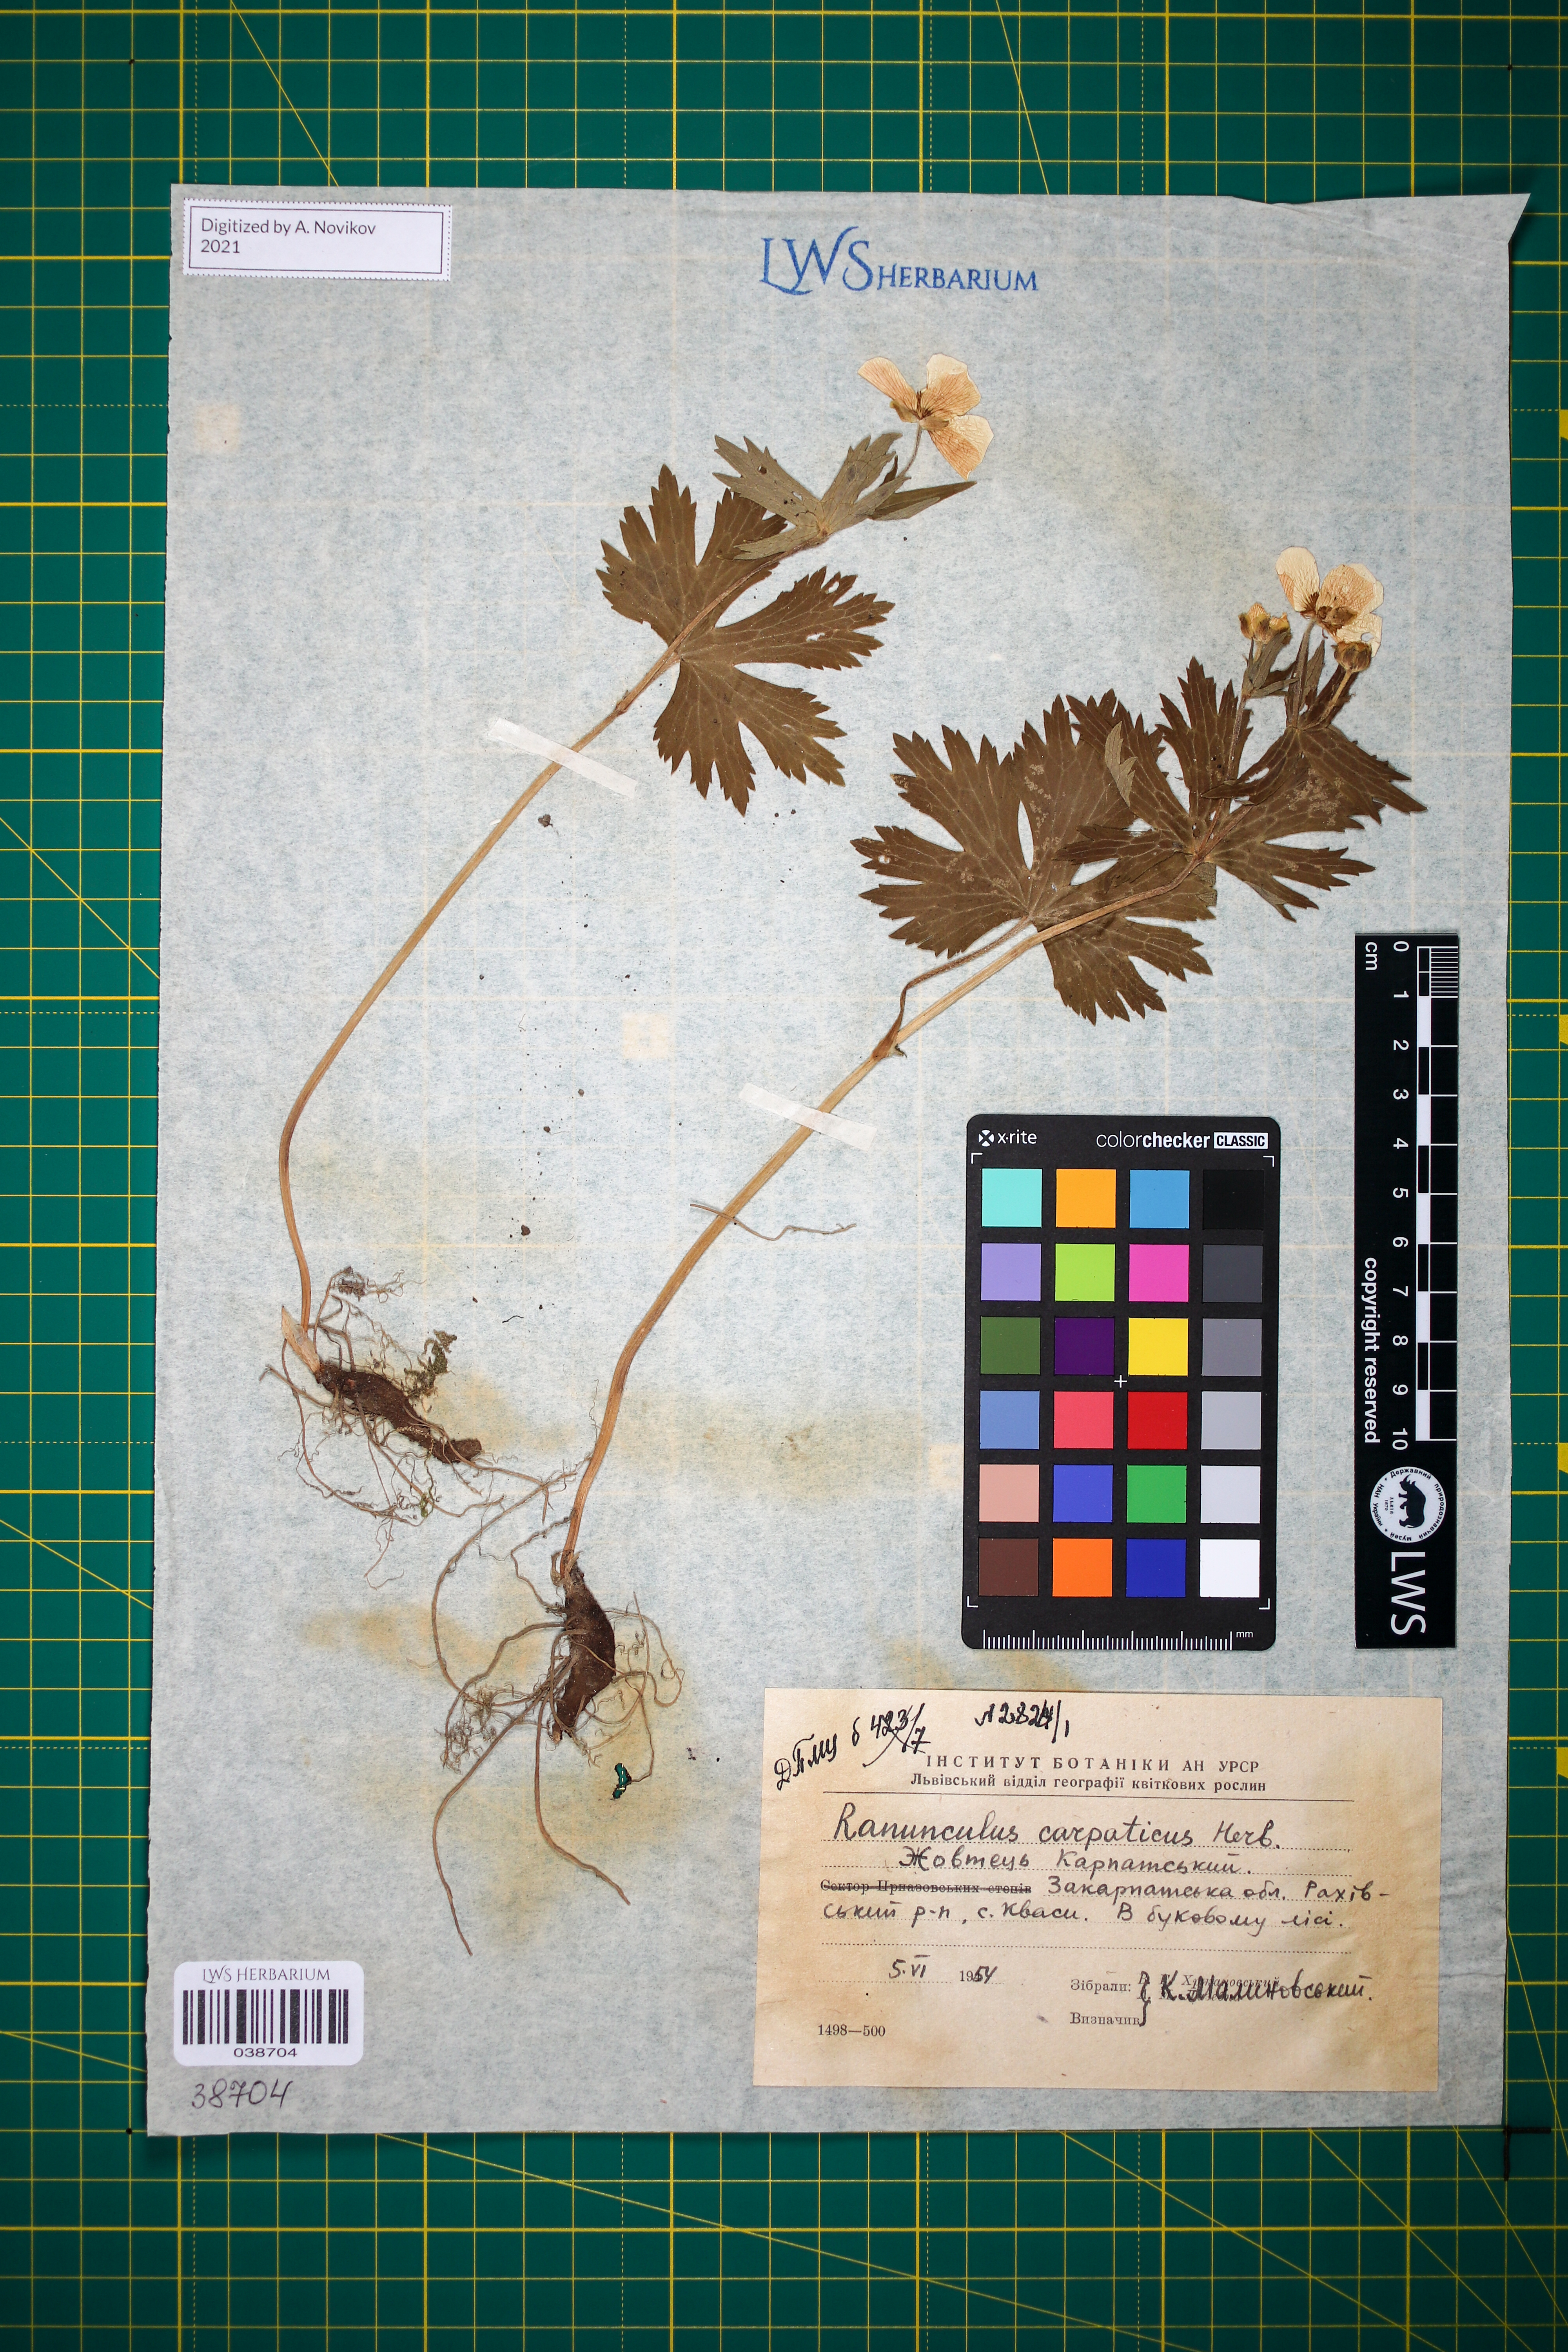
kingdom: Plantae
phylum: Tracheophyta
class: Magnoliopsida
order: Ranunculales
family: Ranunculaceae
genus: Ranunculus
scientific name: Ranunculus carpaticus
